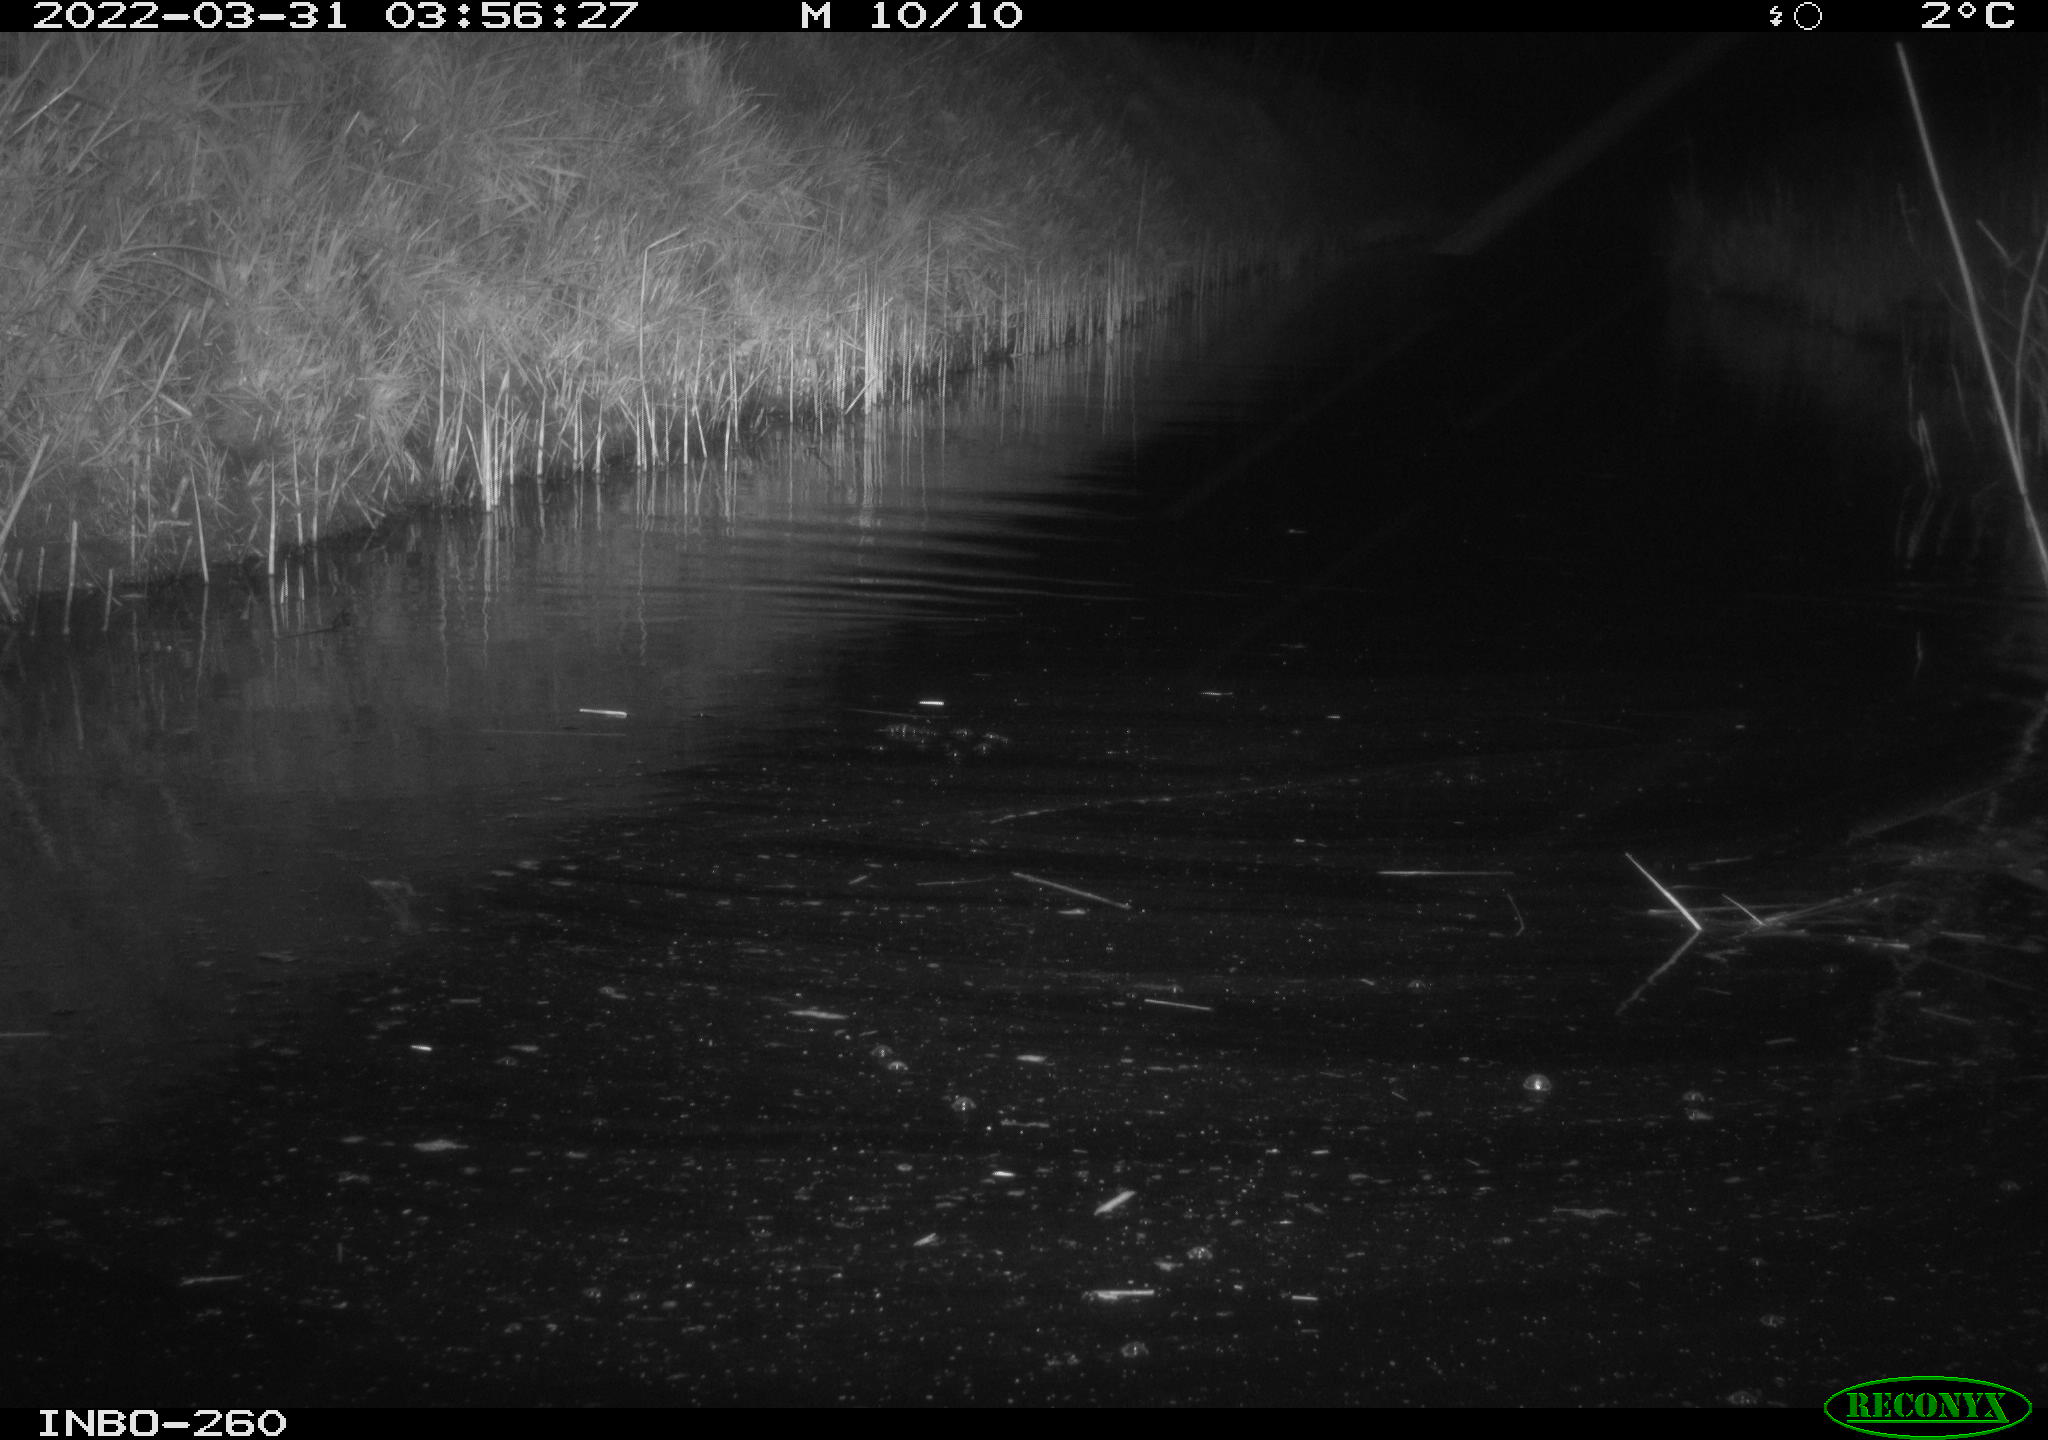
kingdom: Animalia
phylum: Chordata
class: Mammalia
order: Rodentia
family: Muridae
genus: Rattus
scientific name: Rattus norvegicus
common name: Brown rat
